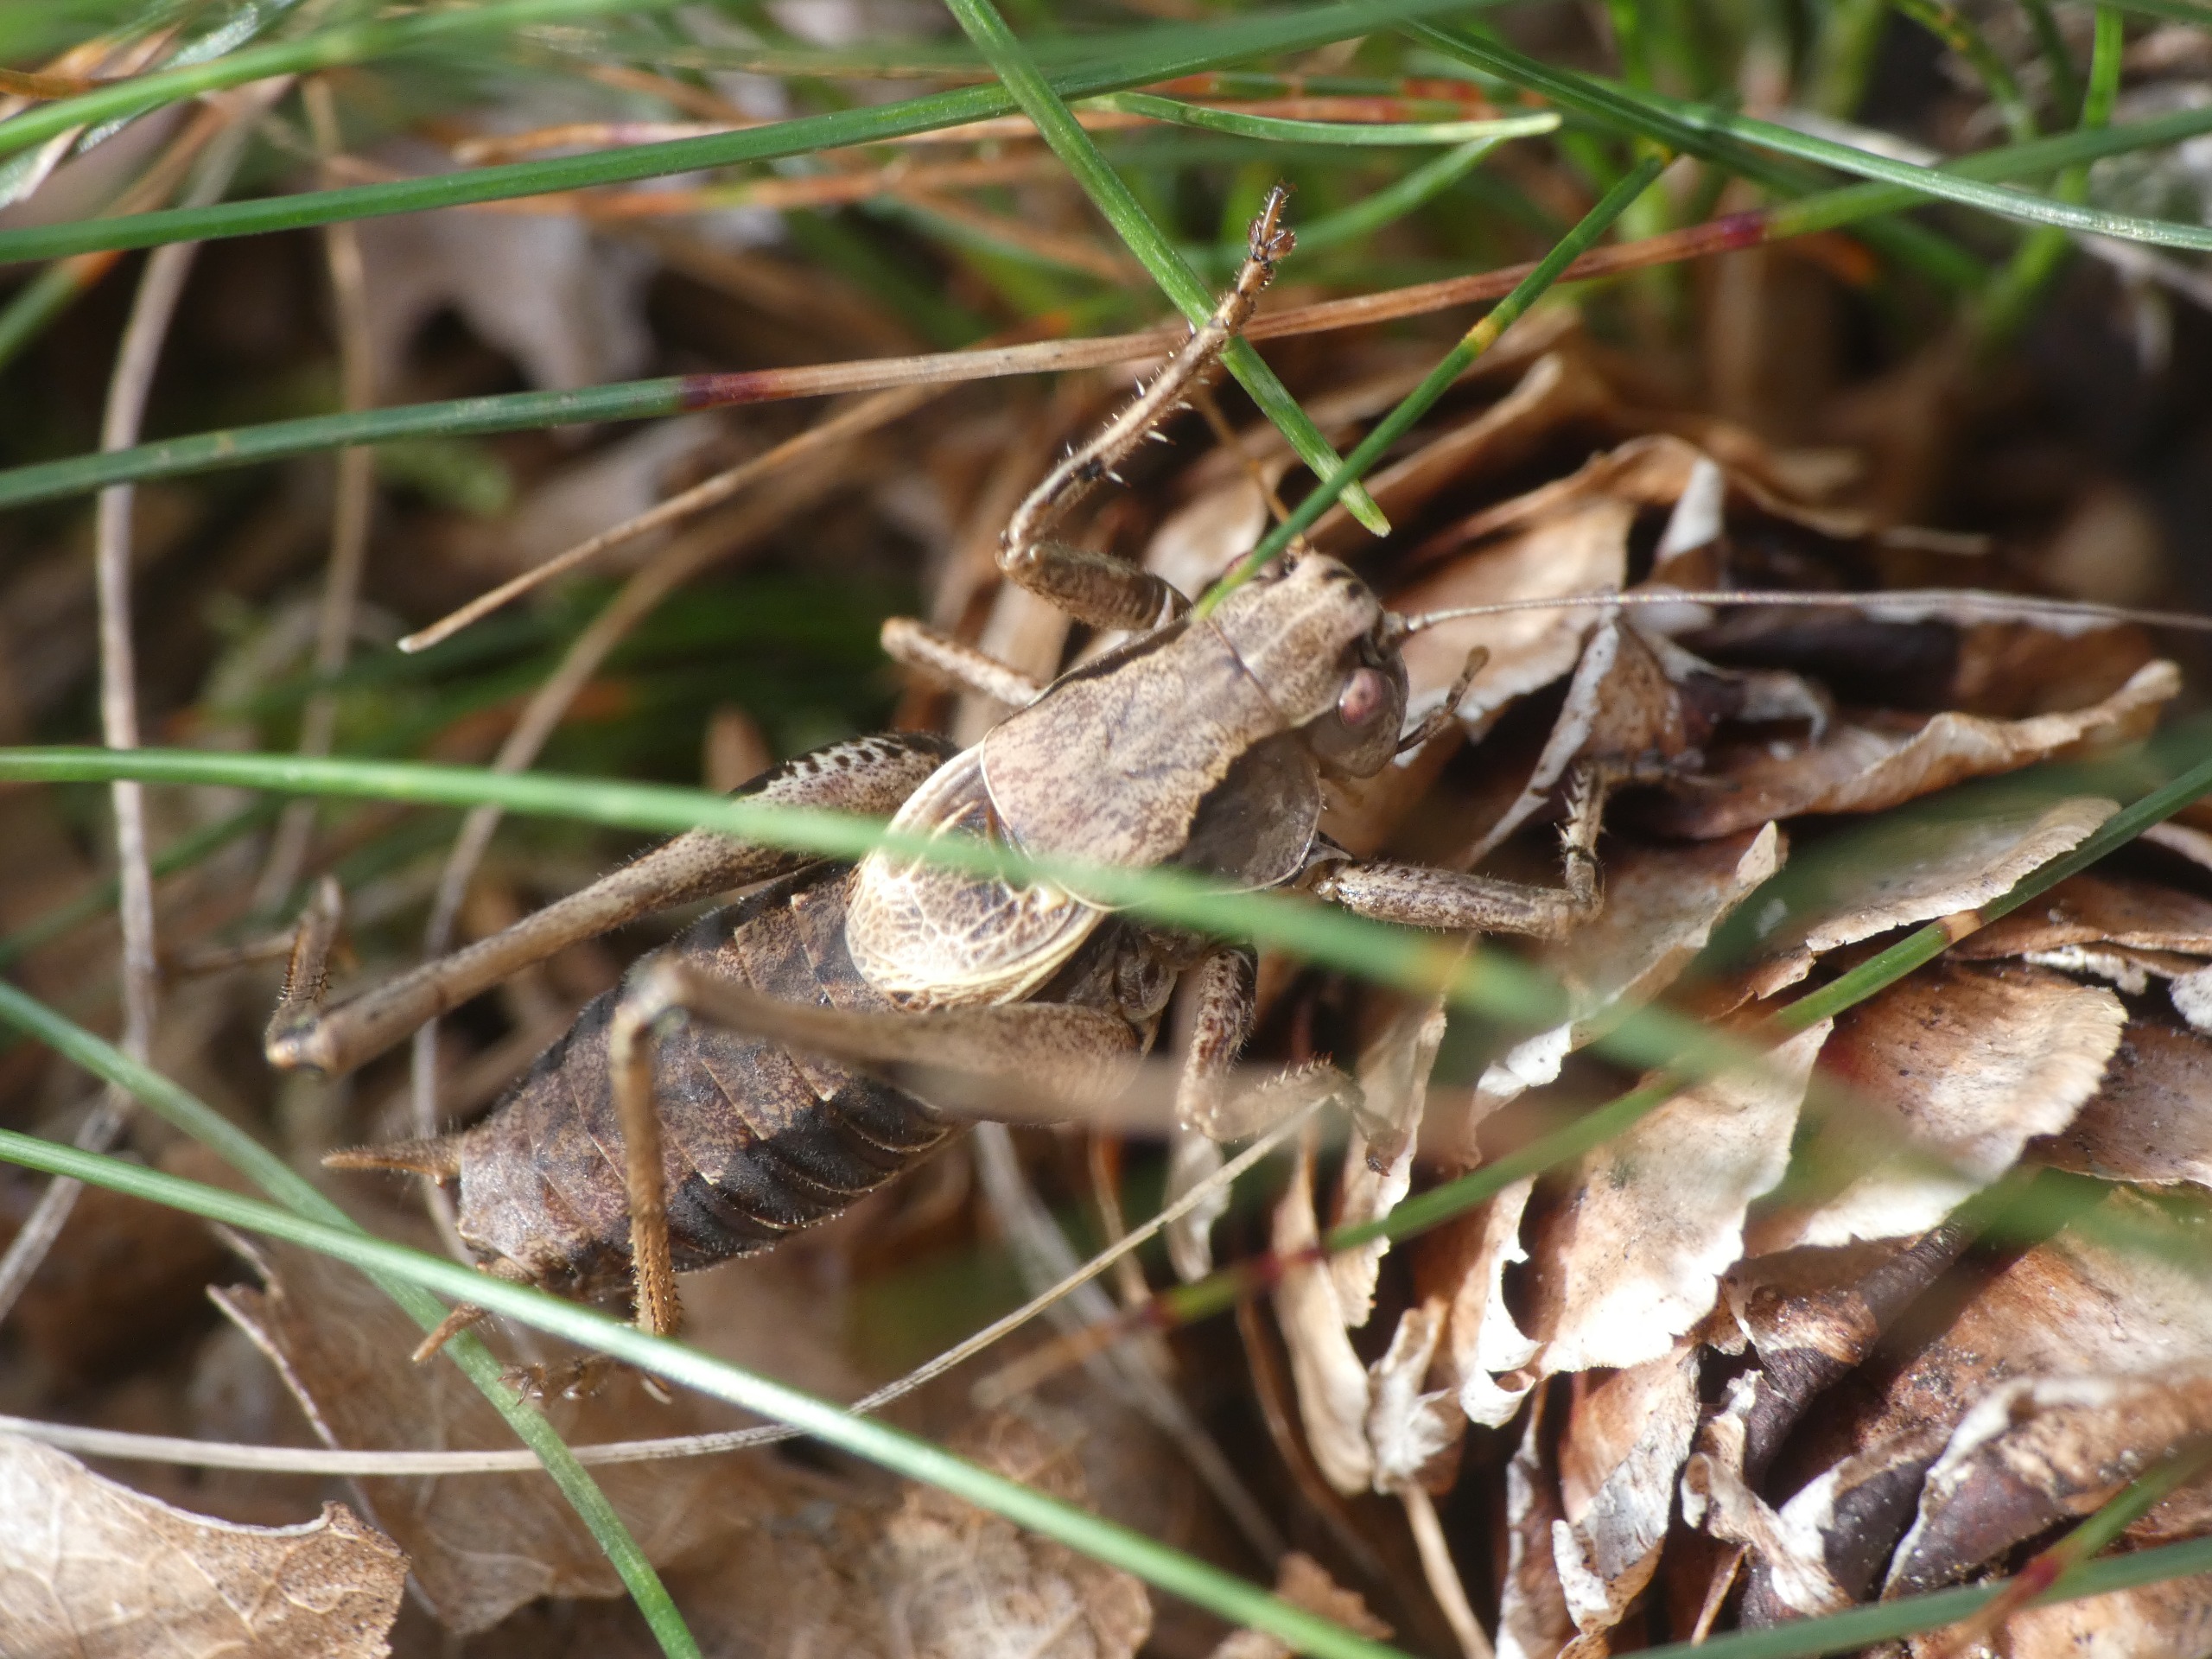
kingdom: Animalia
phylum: Arthropoda
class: Insecta
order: Orthoptera
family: Tettigoniidae
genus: Pholidoptera
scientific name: Pholidoptera griseoaptera
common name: Buskgræshoppe
